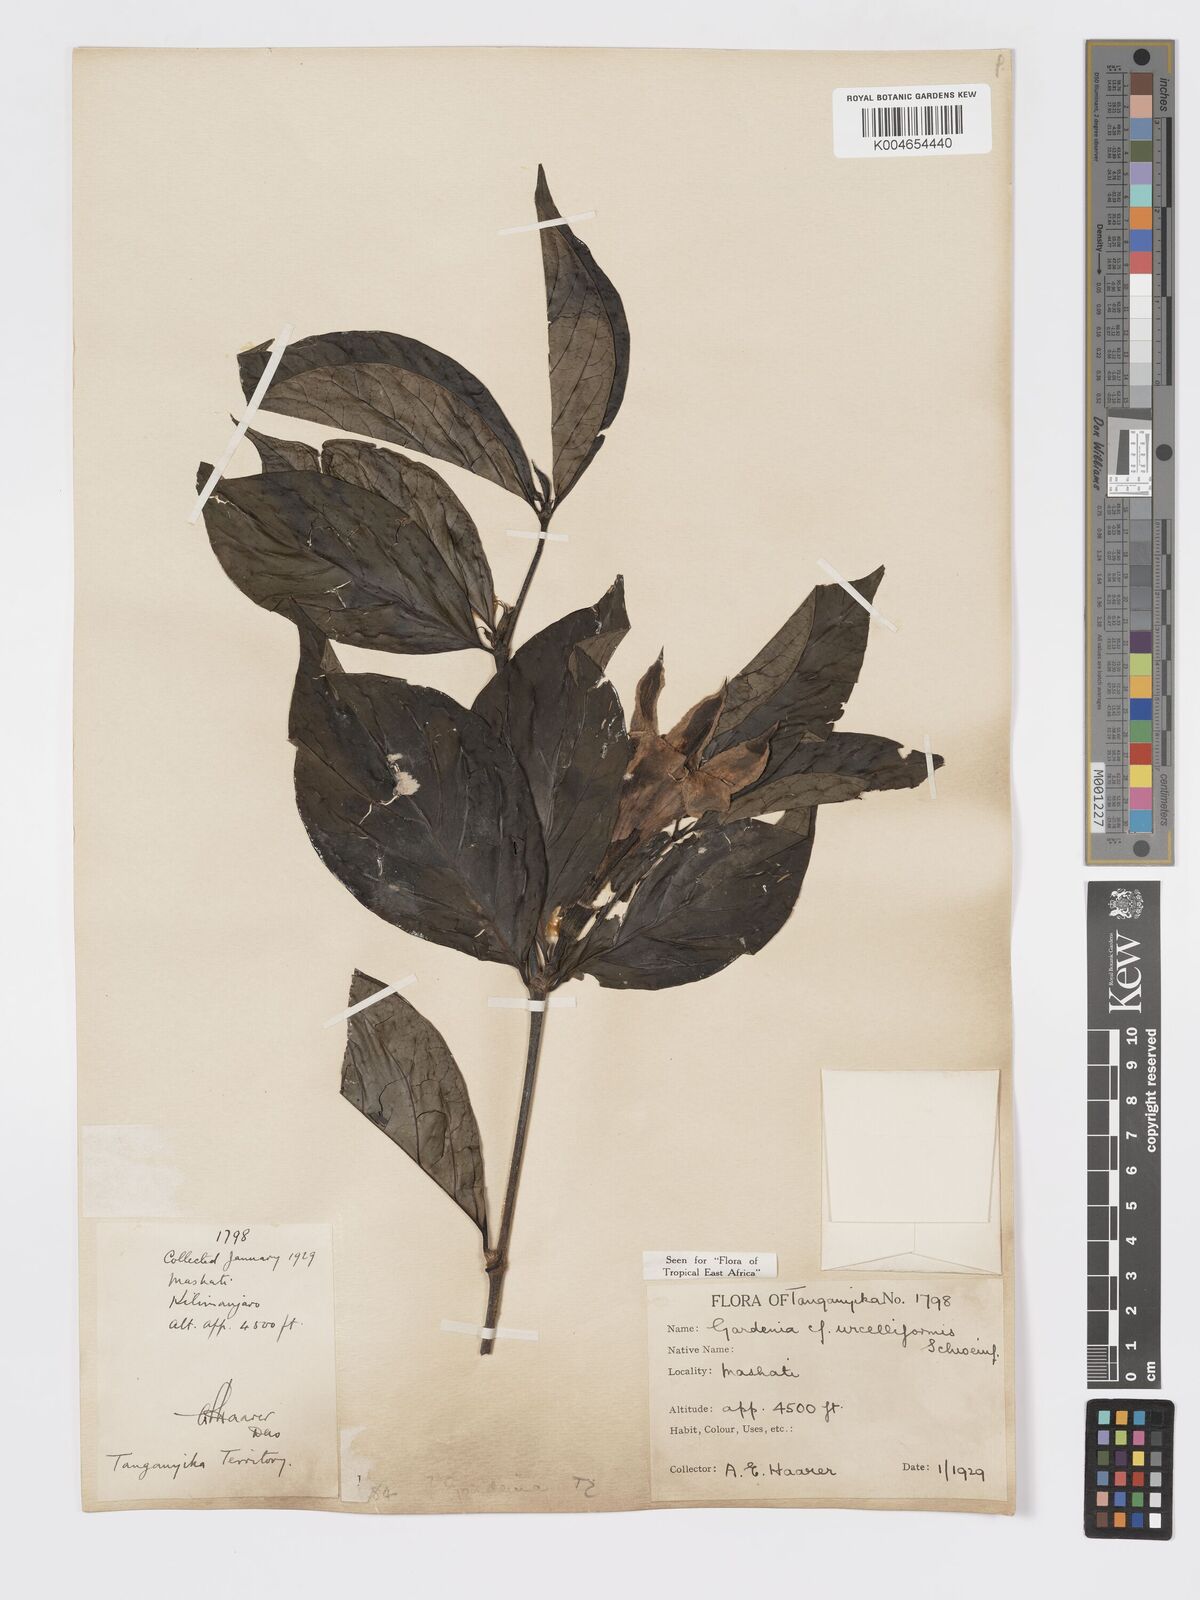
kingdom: Plantae
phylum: Tracheophyta
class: Magnoliopsida
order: Gentianales
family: Rubiaceae
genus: Rothmannia
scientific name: Rothmannia urcelliformis
